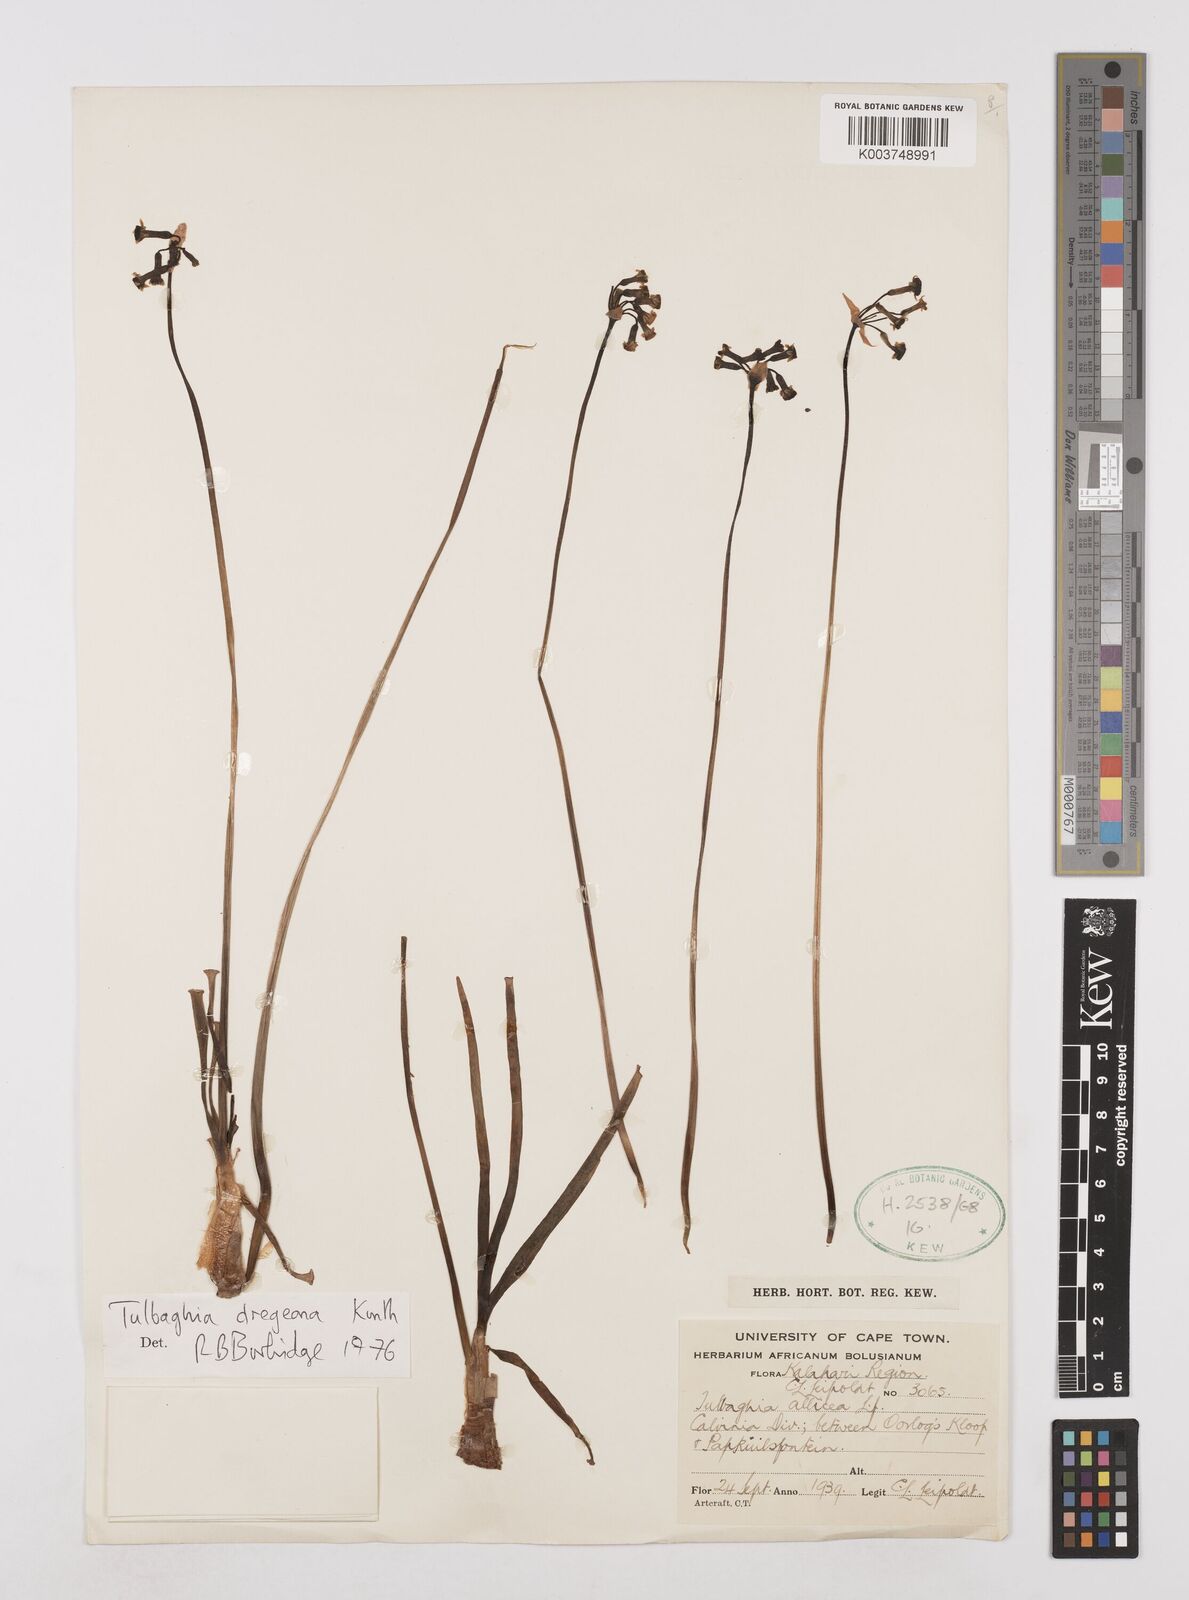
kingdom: Plantae
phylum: Tracheophyta
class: Liliopsida
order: Asparagales
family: Amaryllidaceae
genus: Tulbaghia
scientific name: Tulbaghia dregeana
